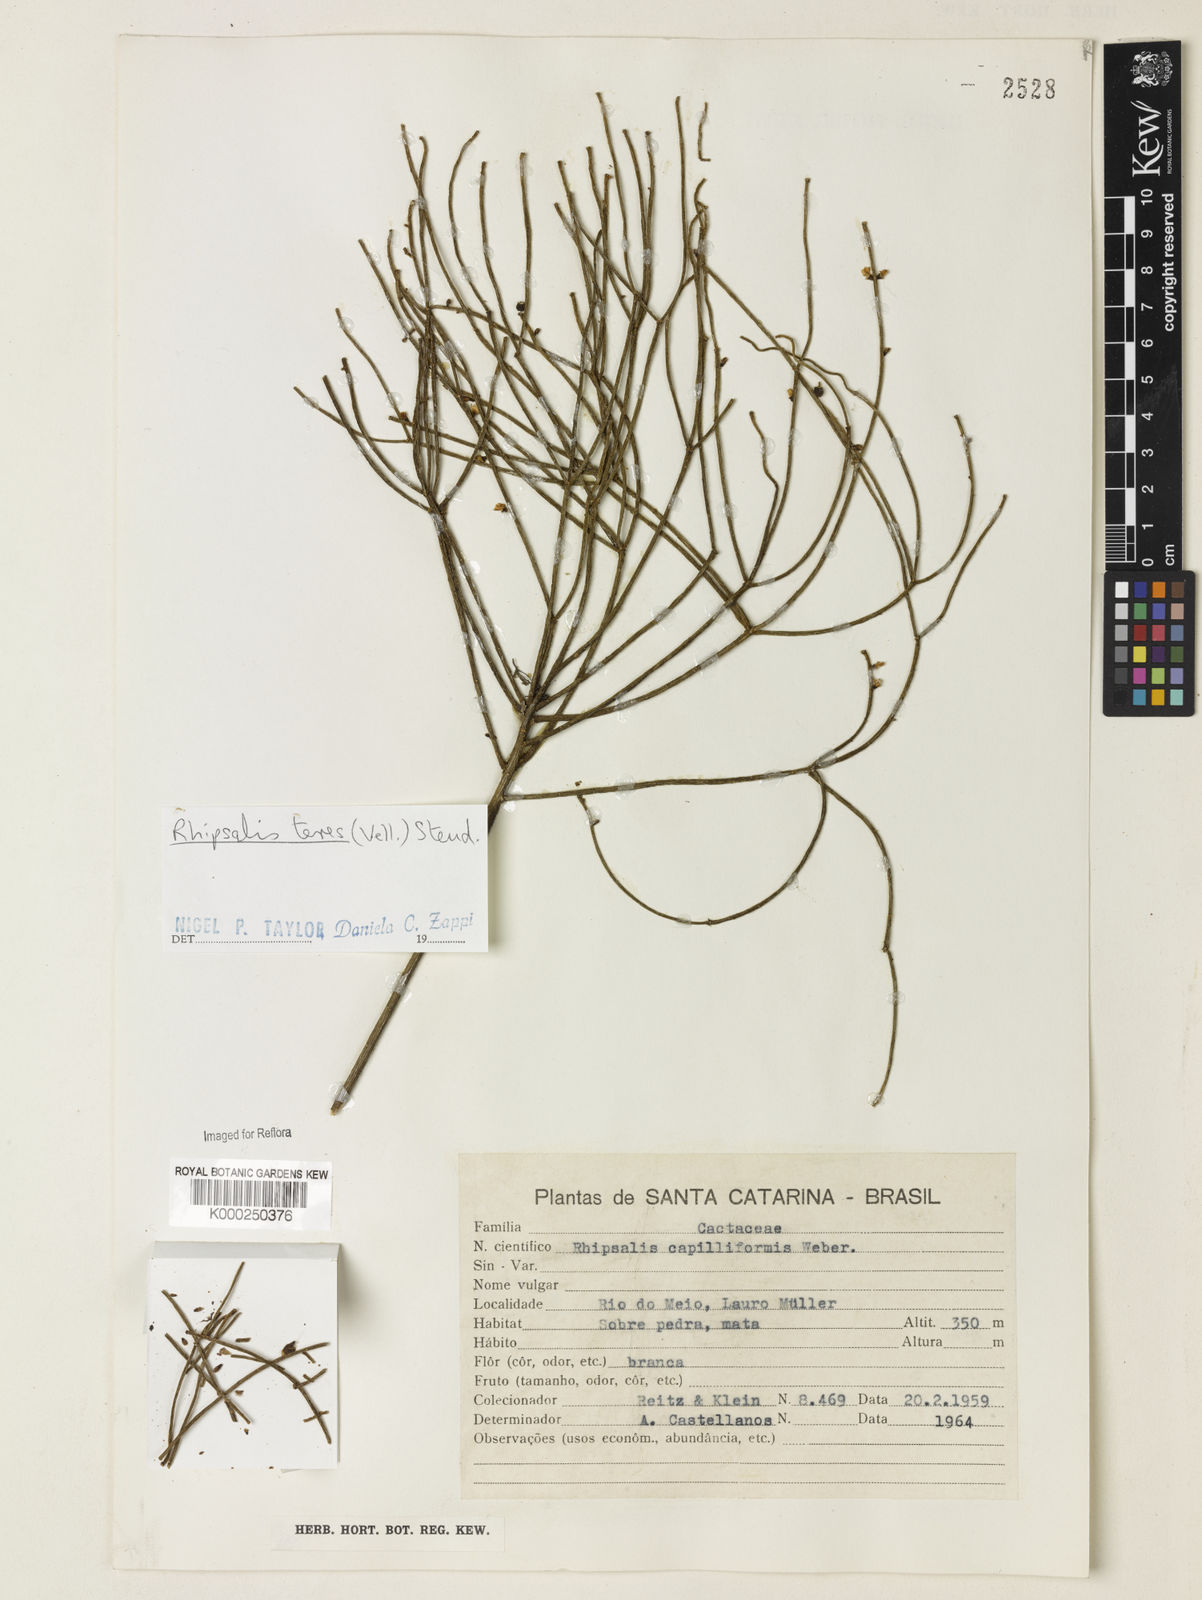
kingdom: Plantae
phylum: Tracheophyta
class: Magnoliopsida
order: Caryophyllales
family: Cactaceae
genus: Rhipsalis
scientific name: Rhipsalis teres
